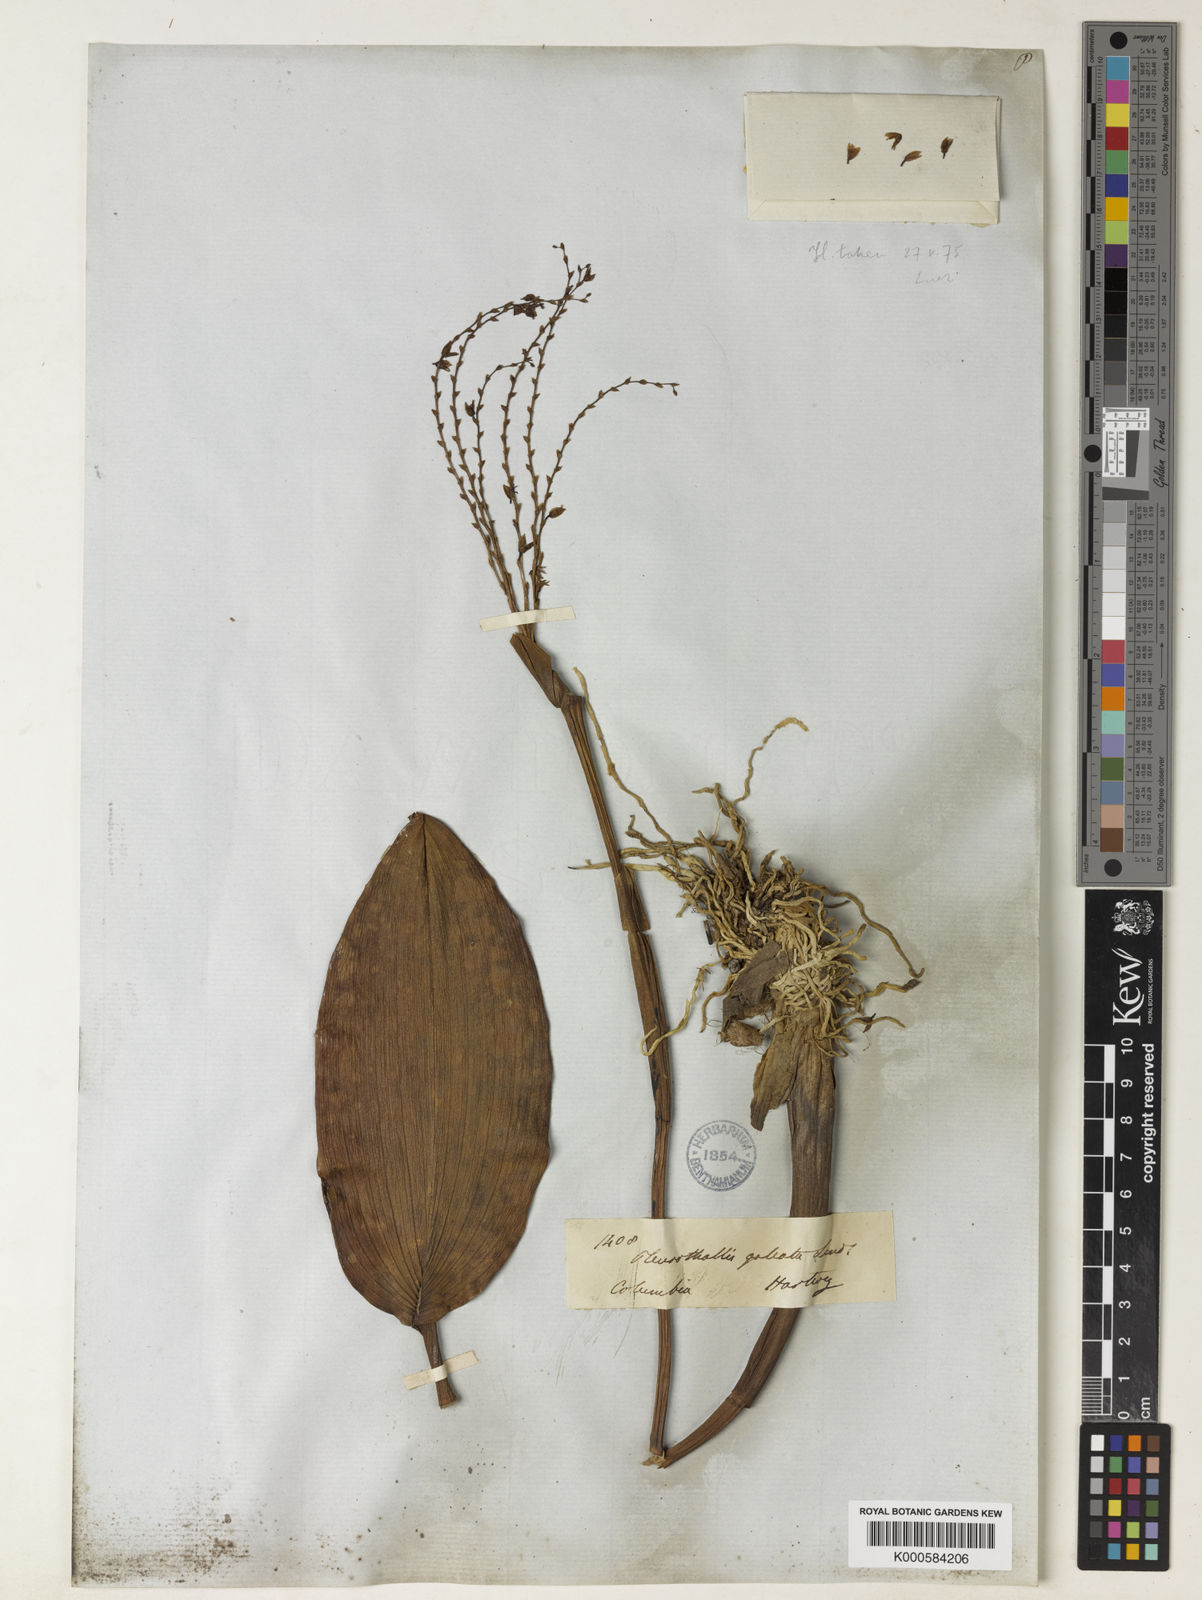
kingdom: Plantae
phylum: Tracheophyta
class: Liliopsida
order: Asparagales
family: Orchidaceae
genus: Stelis
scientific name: Stelis galeata
